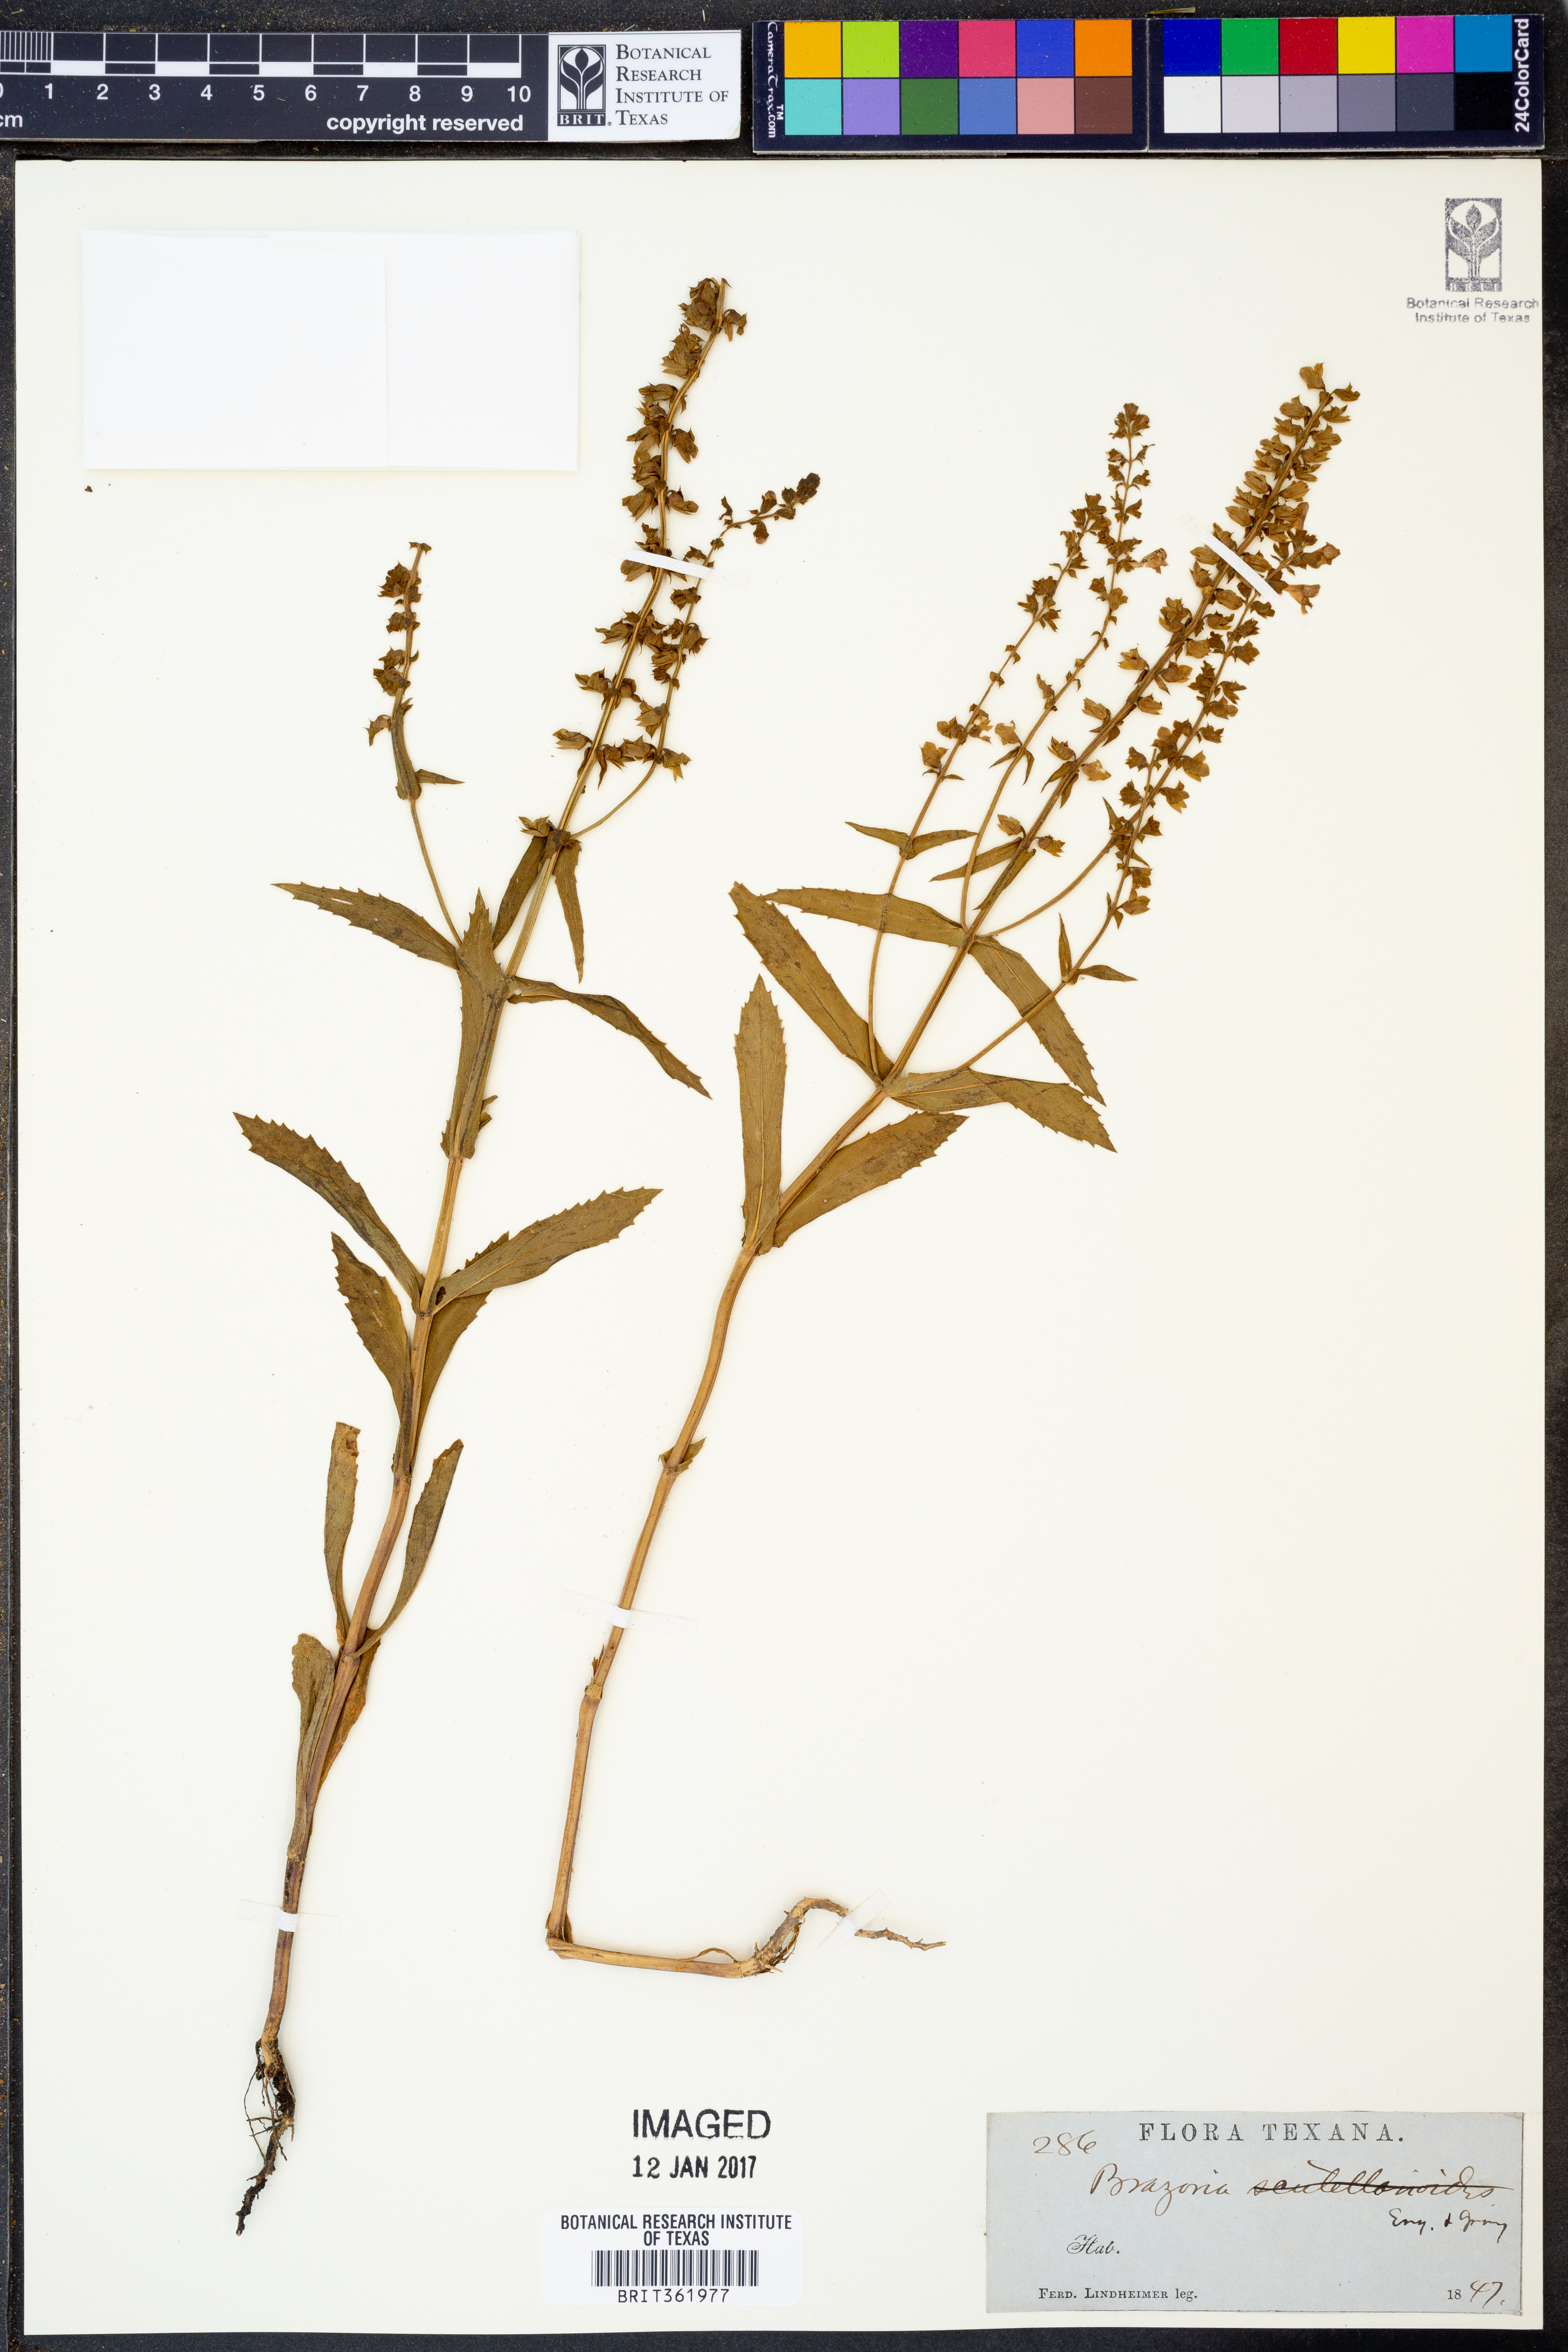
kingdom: Plantae
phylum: Tracheophyta
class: Magnoliopsida
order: Lamiales
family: Lamiaceae
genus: Warnockia
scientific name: Warnockia scutellarioides
